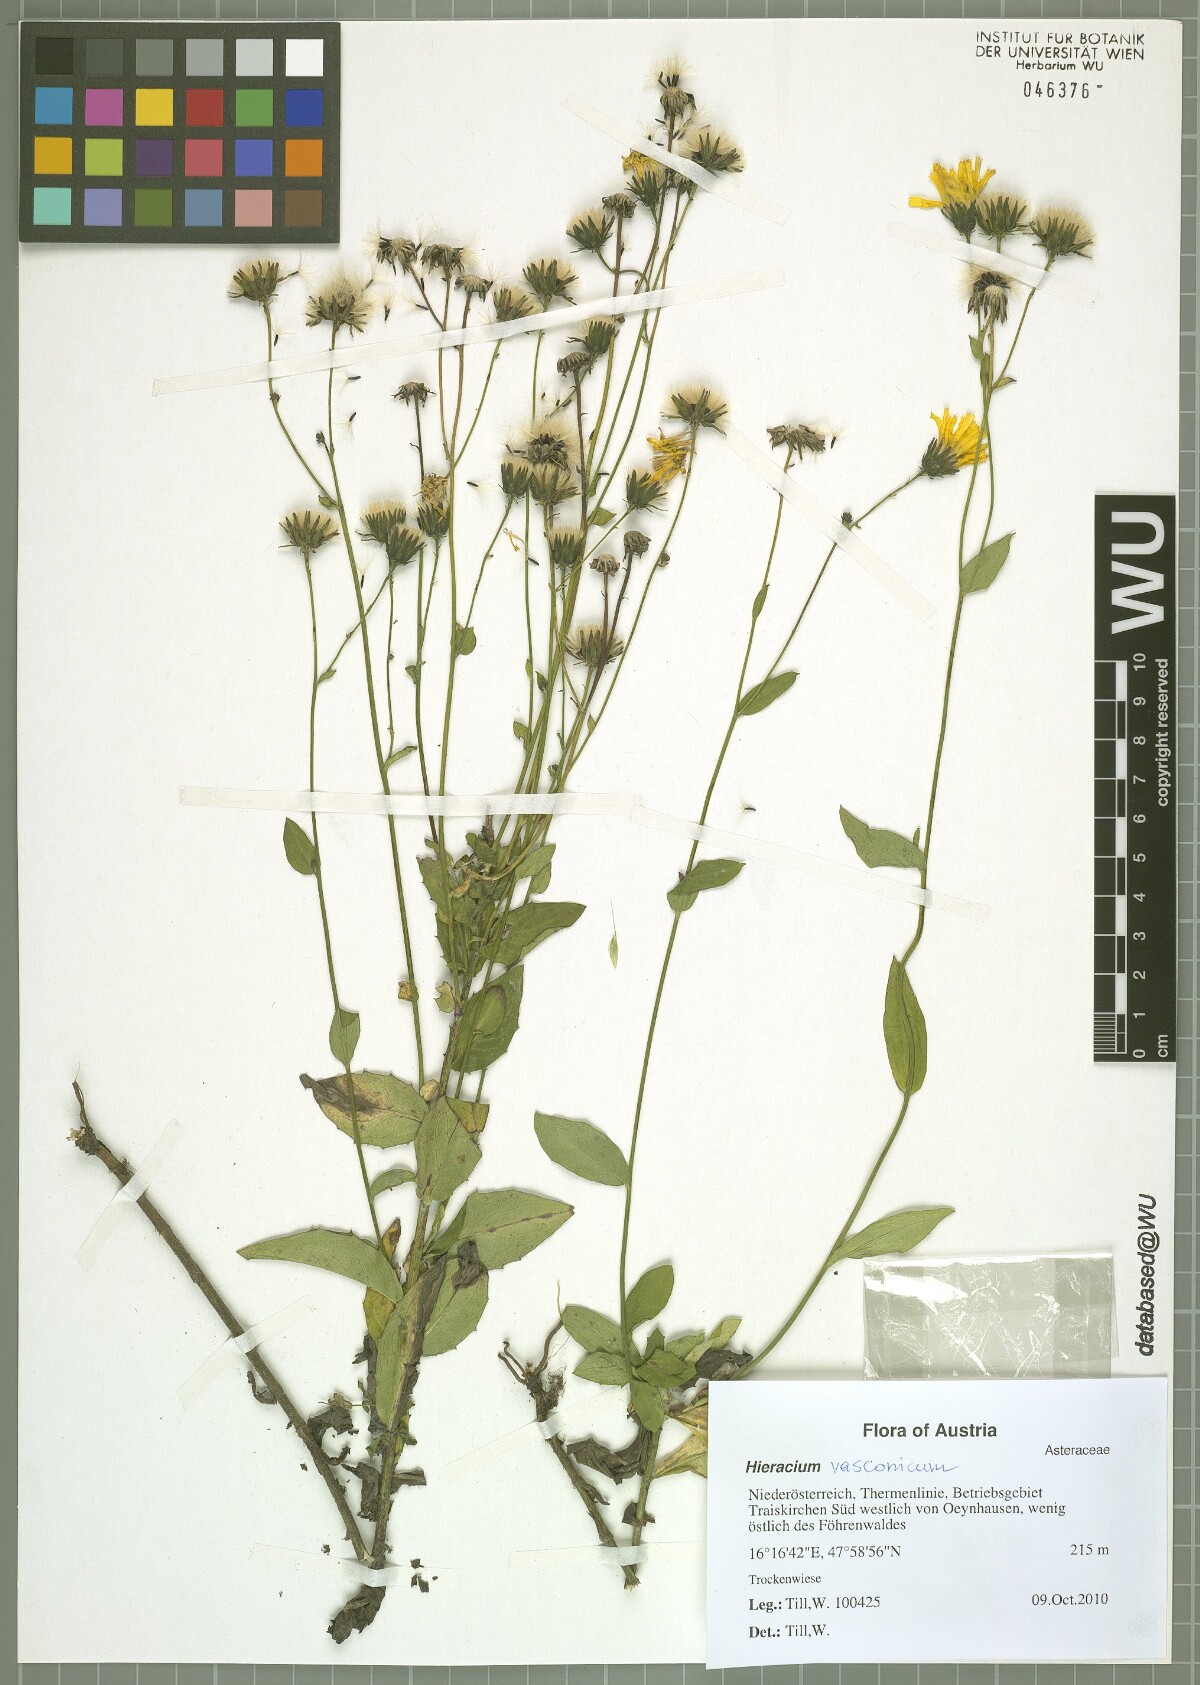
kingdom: Plantae
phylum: Tracheophyta
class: Magnoliopsida
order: Asterales
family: Asteraceae
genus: Hieracium
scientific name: Hieracium sabaudum
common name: New england hawkweed
